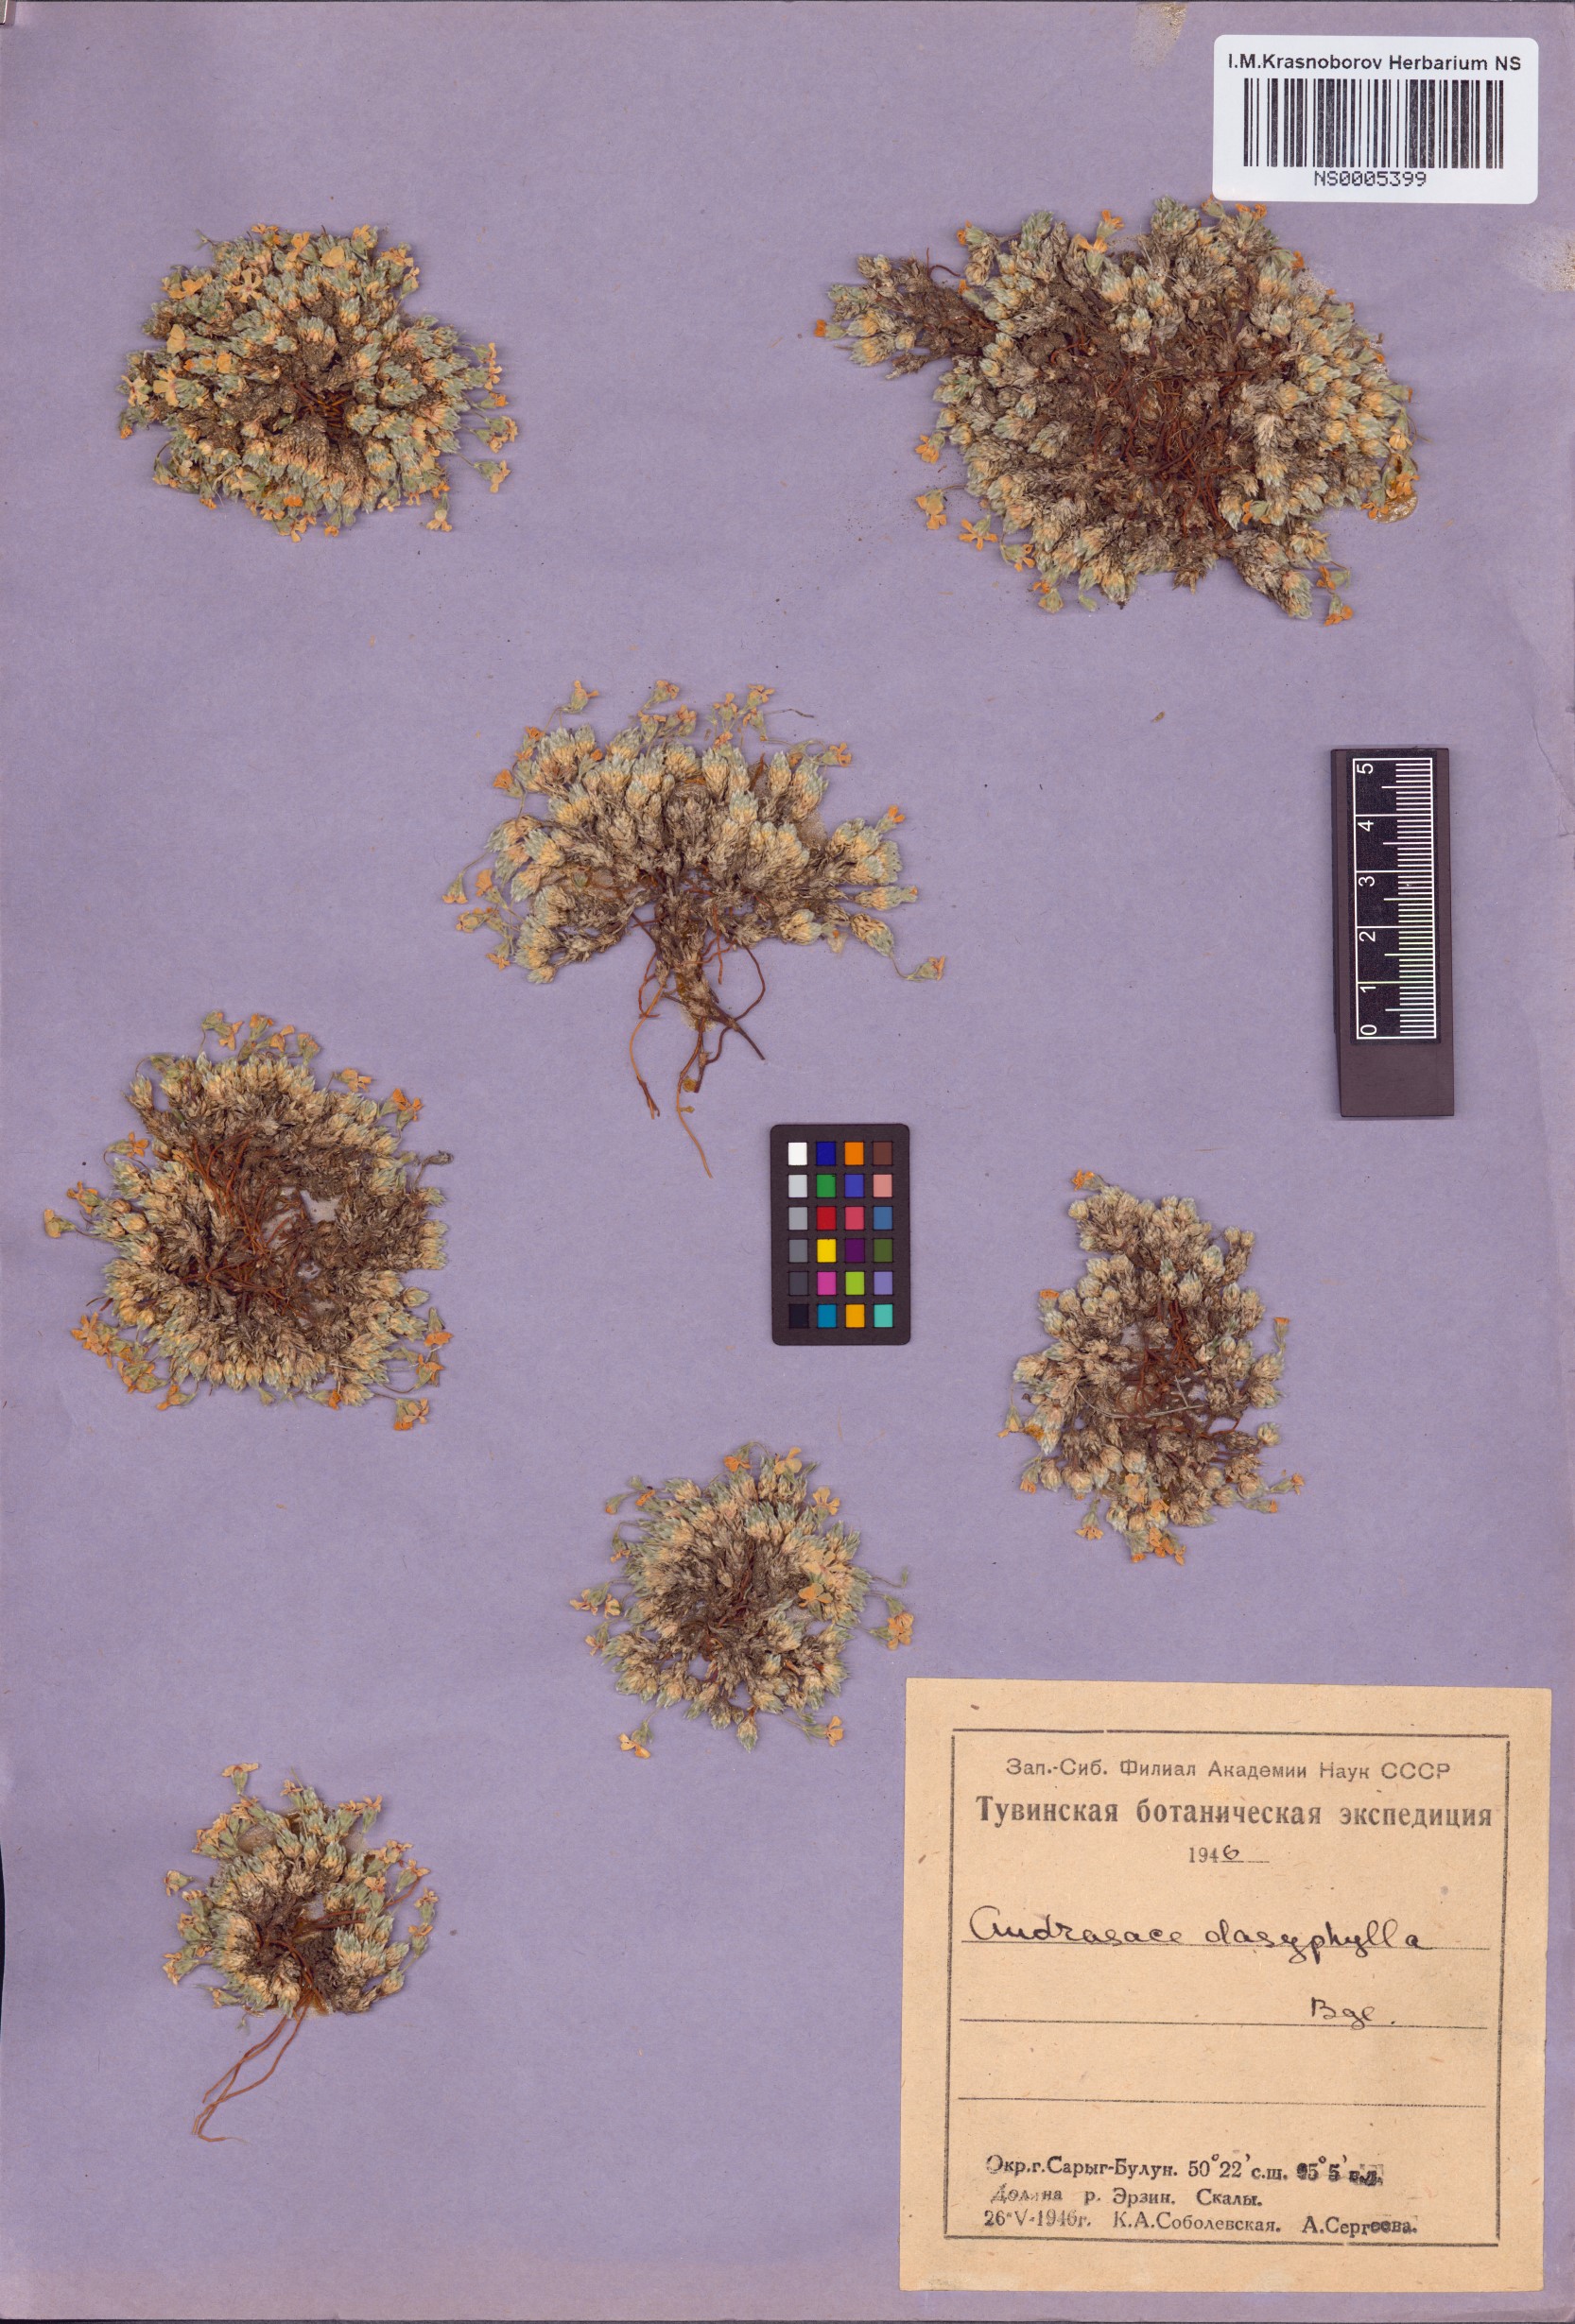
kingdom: Plantae
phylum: Tracheophyta
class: Magnoliopsida
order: Ericales
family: Primulaceae
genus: Androsace
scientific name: Androsace dasyphylla
